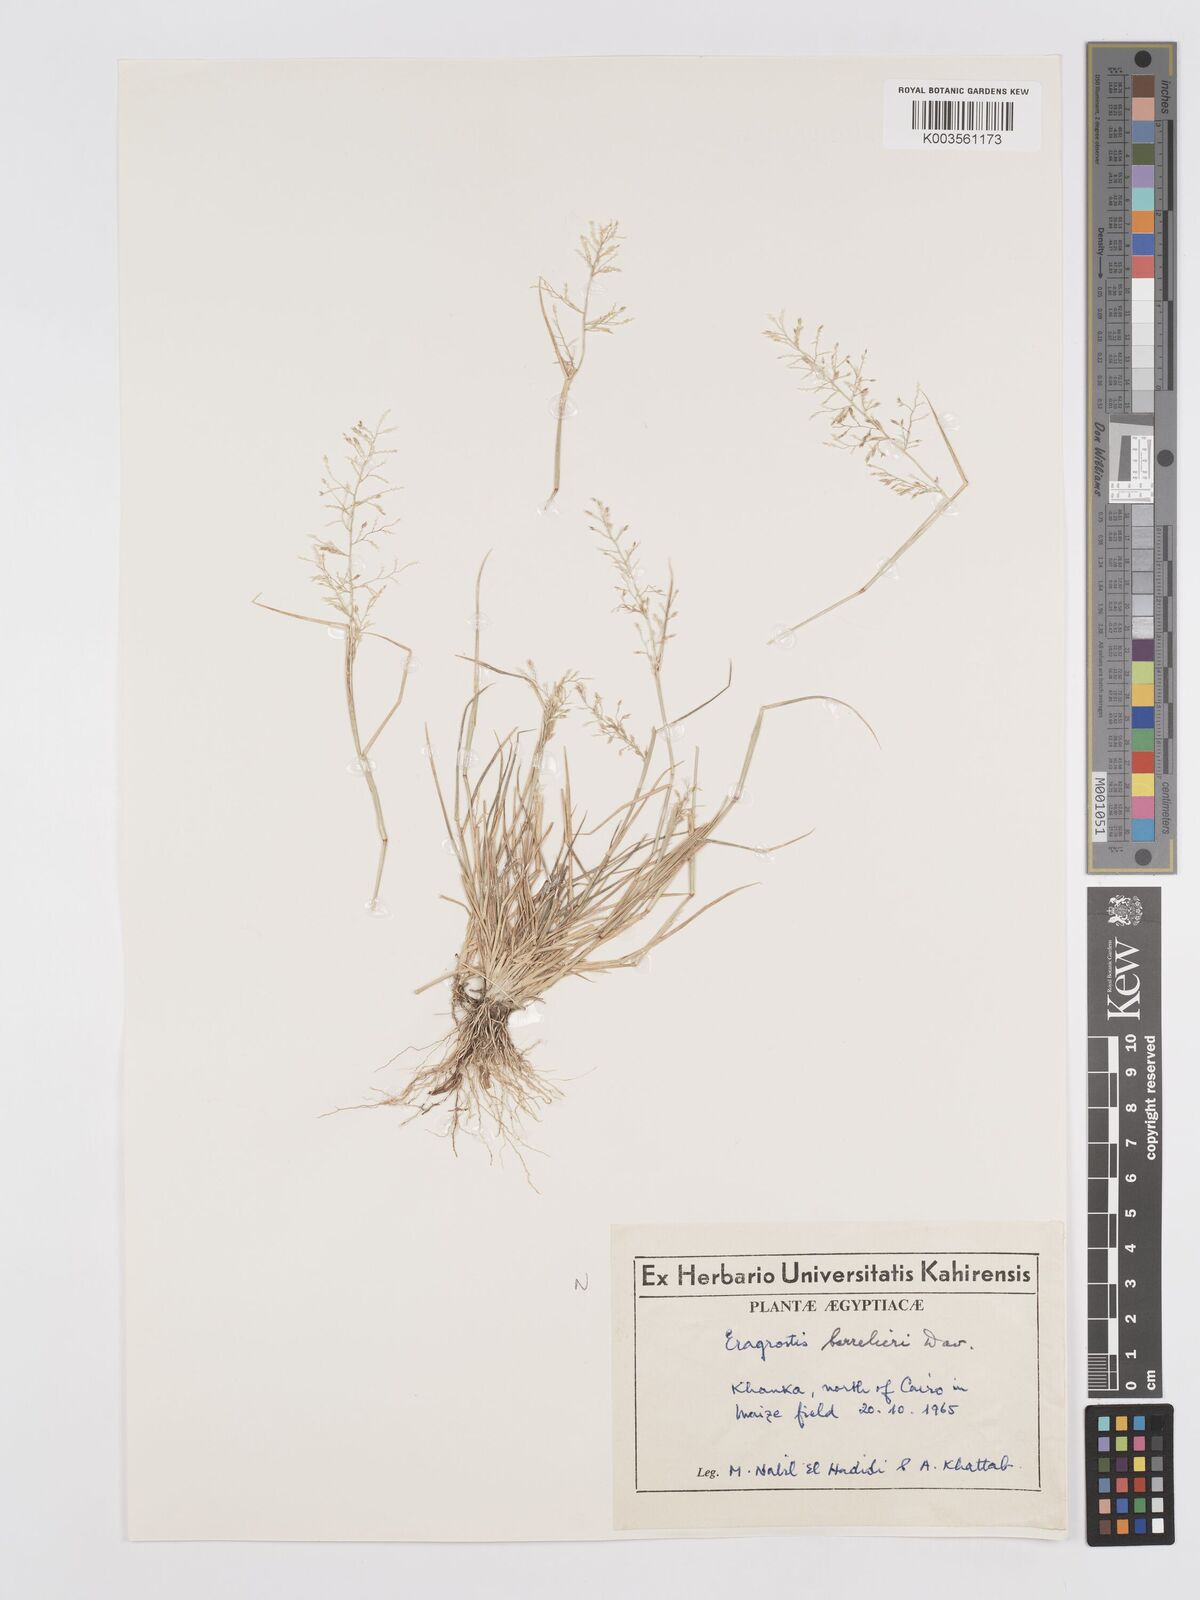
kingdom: Plantae
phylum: Tracheophyta
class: Liliopsida
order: Poales
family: Poaceae
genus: Eragrostis
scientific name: Eragrostis barrelieri
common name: Mediterranean lovegrass
